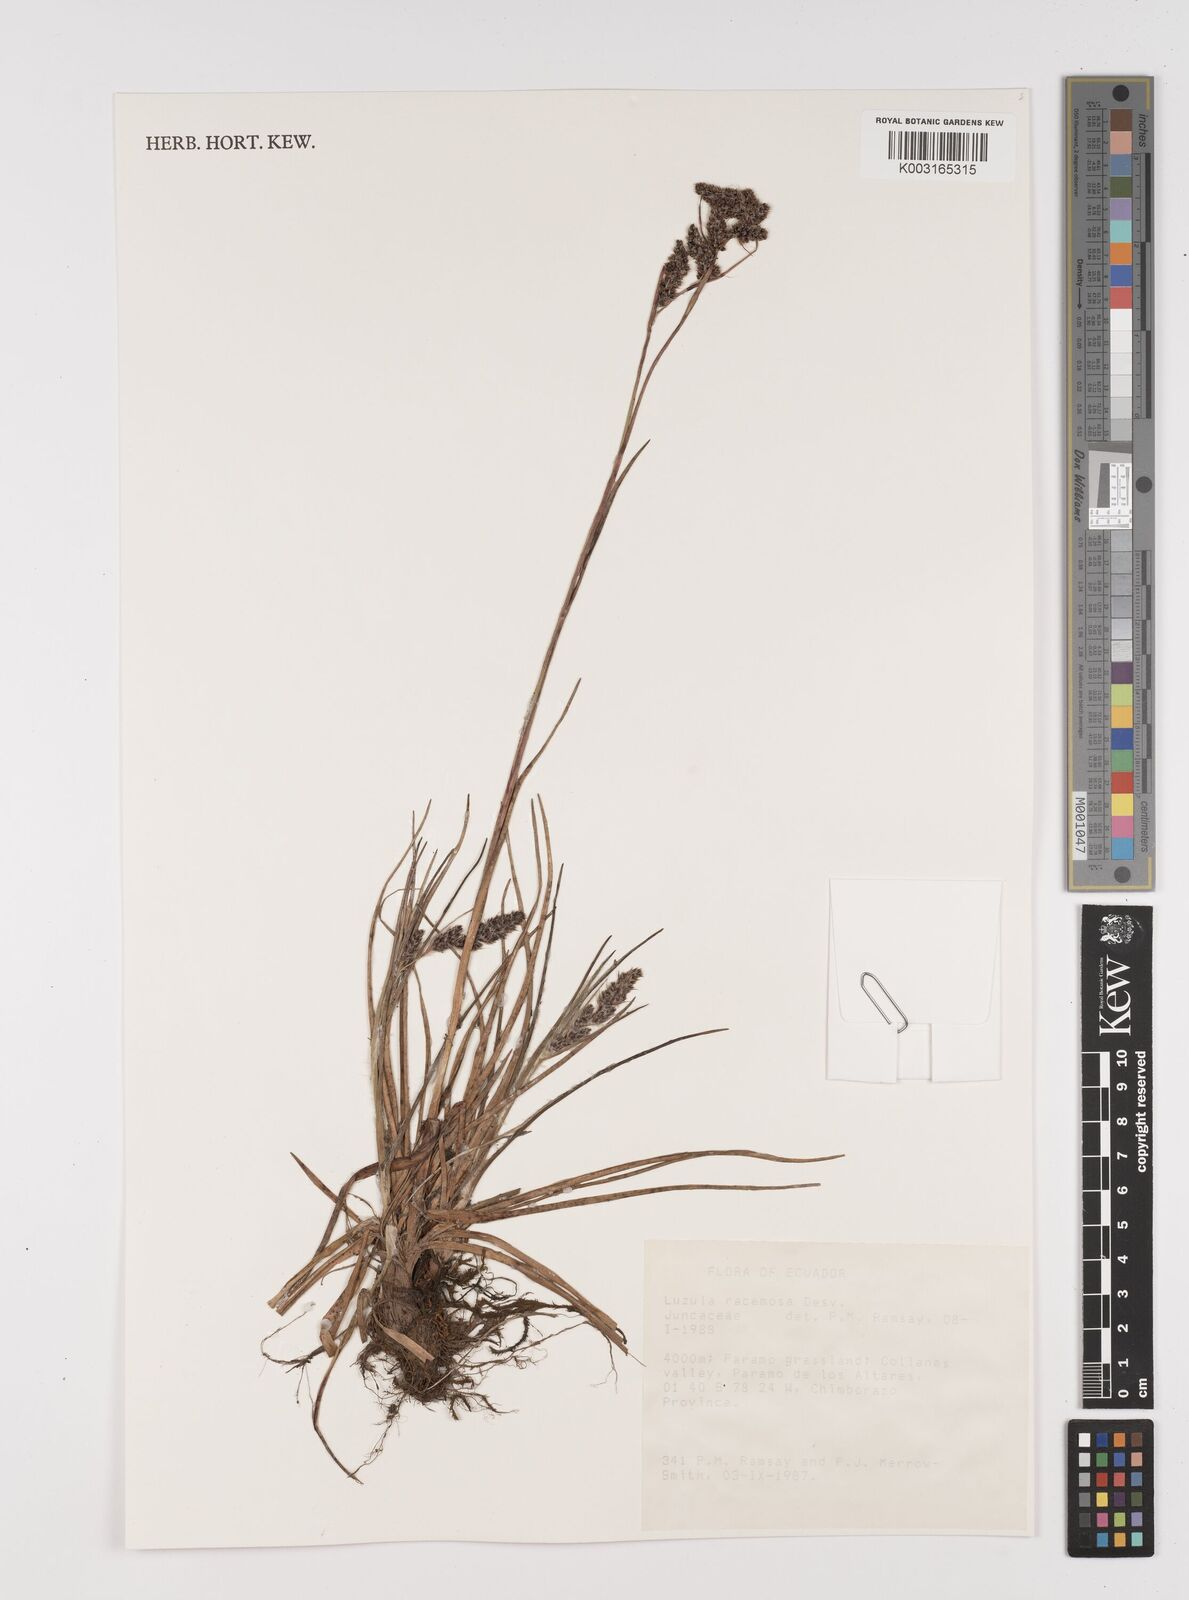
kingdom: Plantae
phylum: Tracheophyta
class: Liliopsida
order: Poales
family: Juncaceae
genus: Luzula
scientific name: Luzula racemosa
